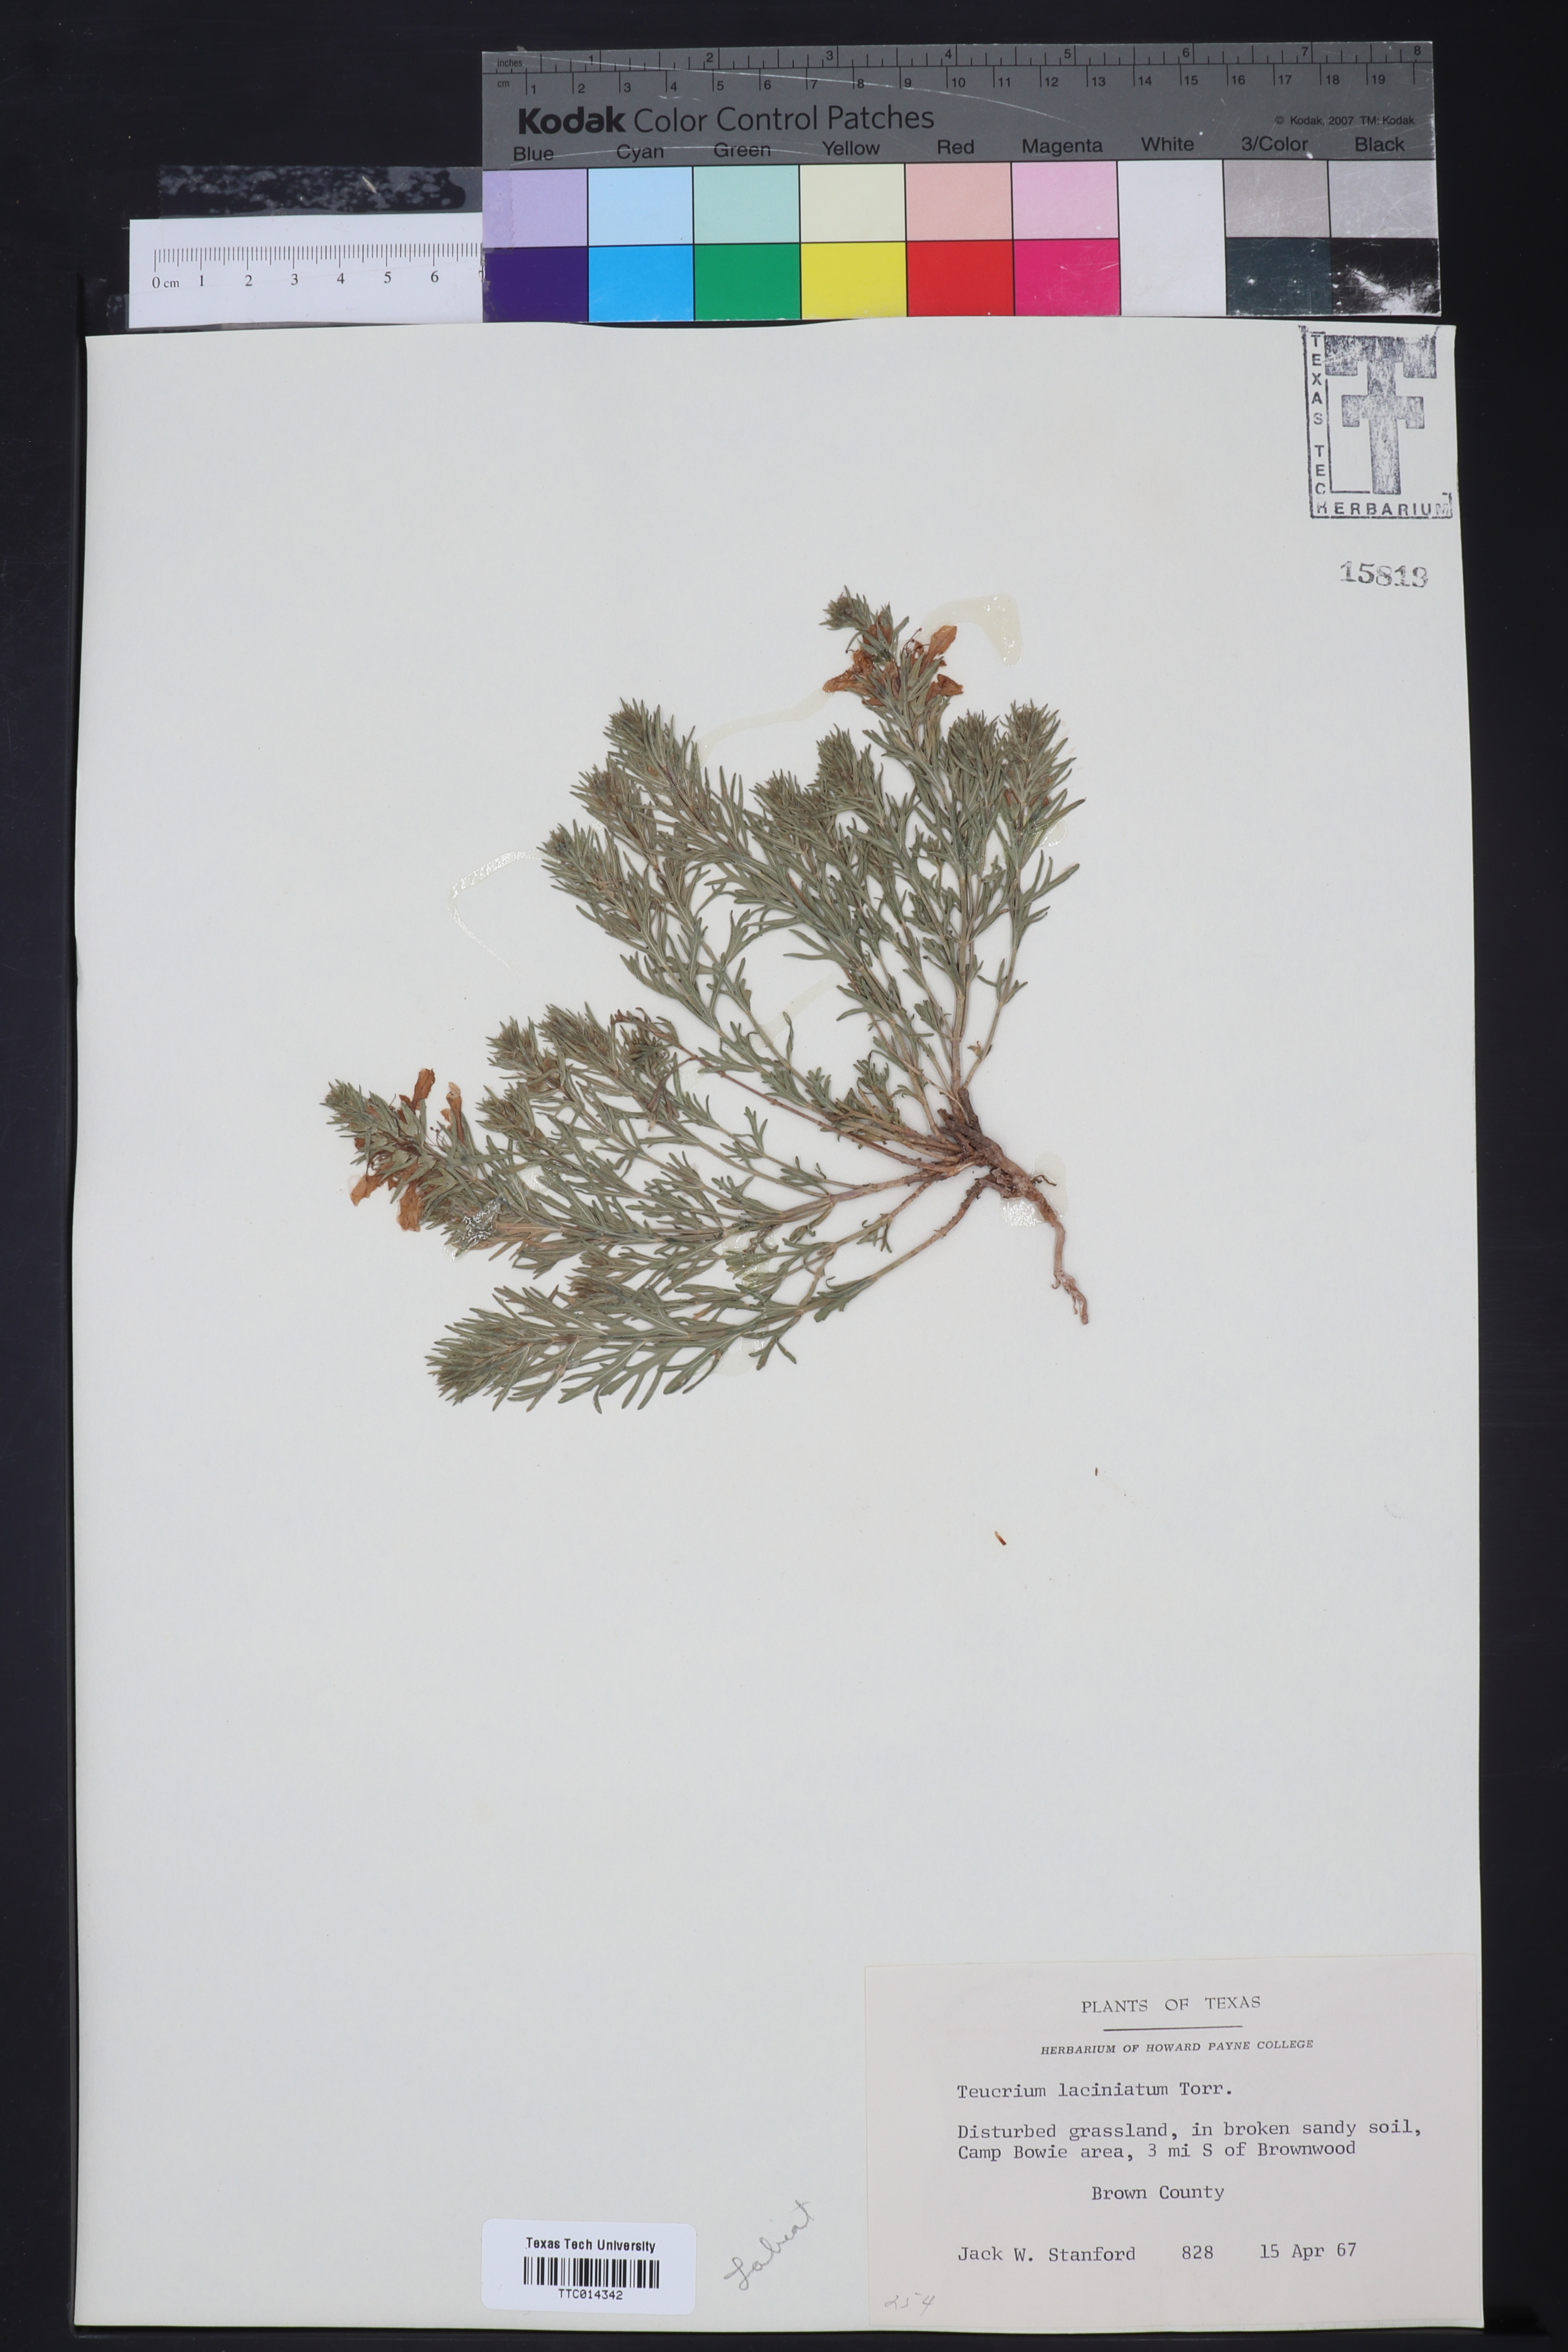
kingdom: Plantae
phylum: Tracheophyta
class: Magnoliopsida
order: Lamiales
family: Lamiaceae
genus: Teucrium
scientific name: Teucrium laciniatum
